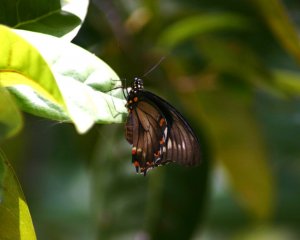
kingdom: Animalia
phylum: Arthropoda
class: Insecta
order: Lepidoptera
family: Papilionidae
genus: Battus
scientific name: Battus polydamas
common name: Polydamas Swallowtail
